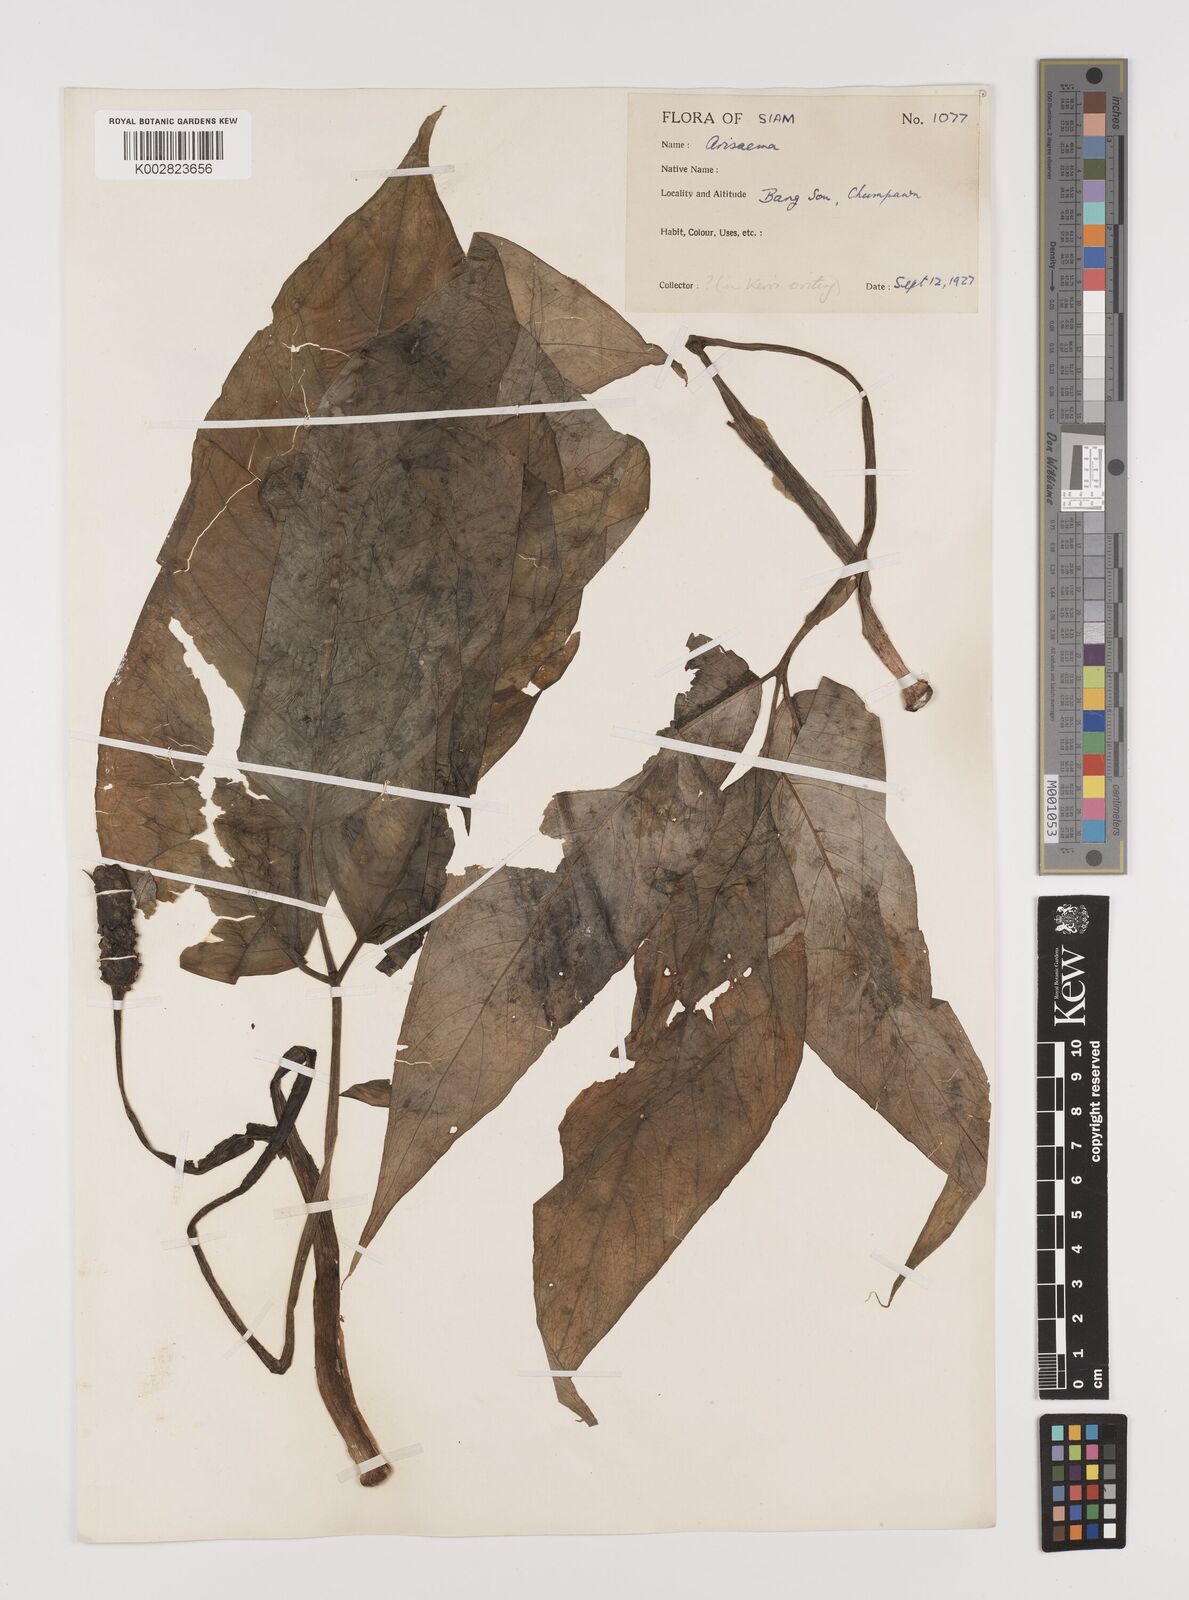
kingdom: Plantae
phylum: Tracheophyta
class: Liliopsida
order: Alismatales
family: Araceae
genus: Arisaema
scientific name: Arisaema
